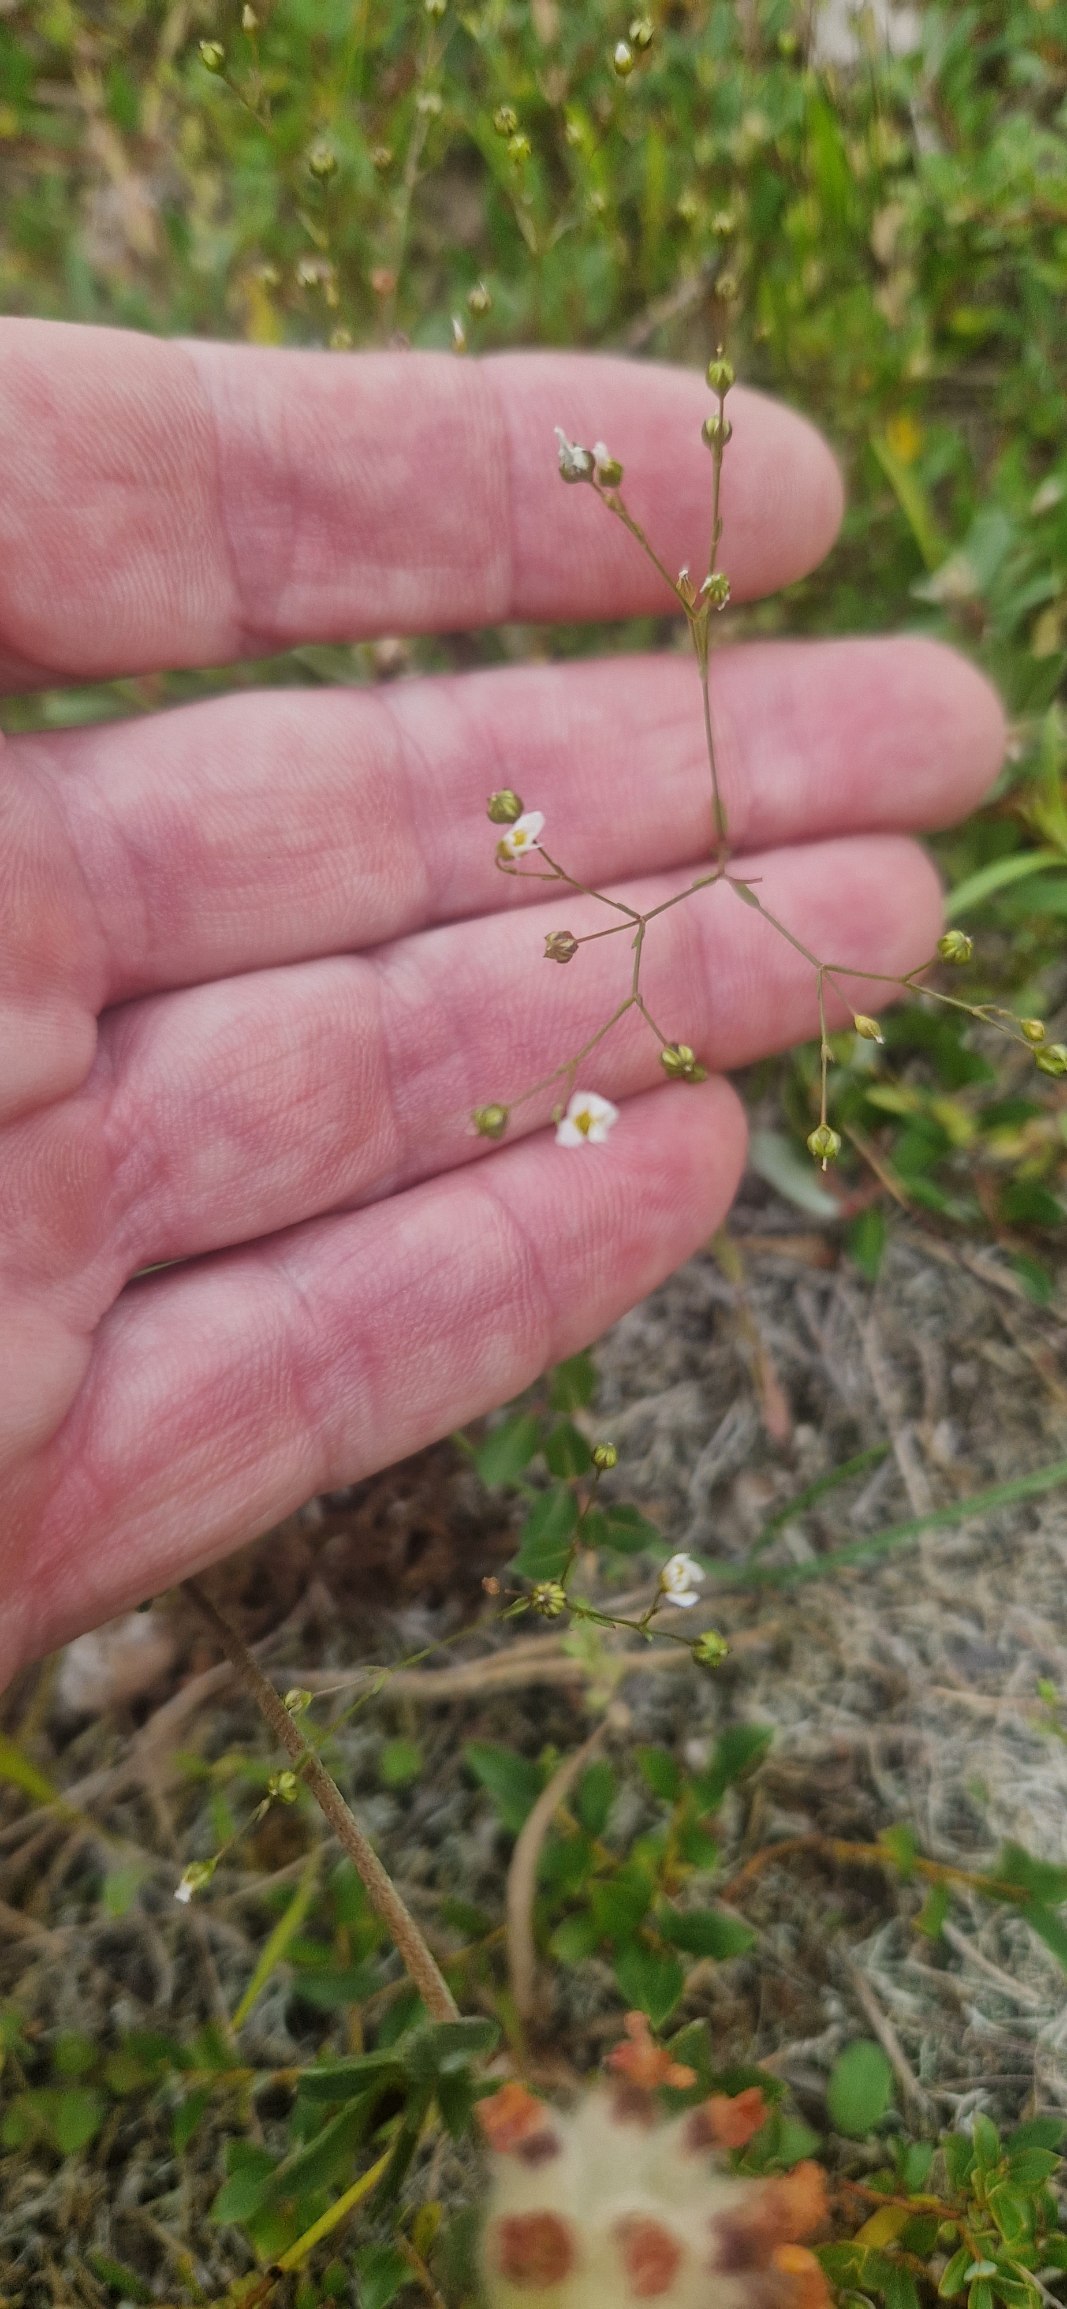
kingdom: Plantae
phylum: Tracheophyta
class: Magnoliopsida
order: Malpighiales
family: Linaceae
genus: Linum
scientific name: Linum catharticum
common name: Vild hør
